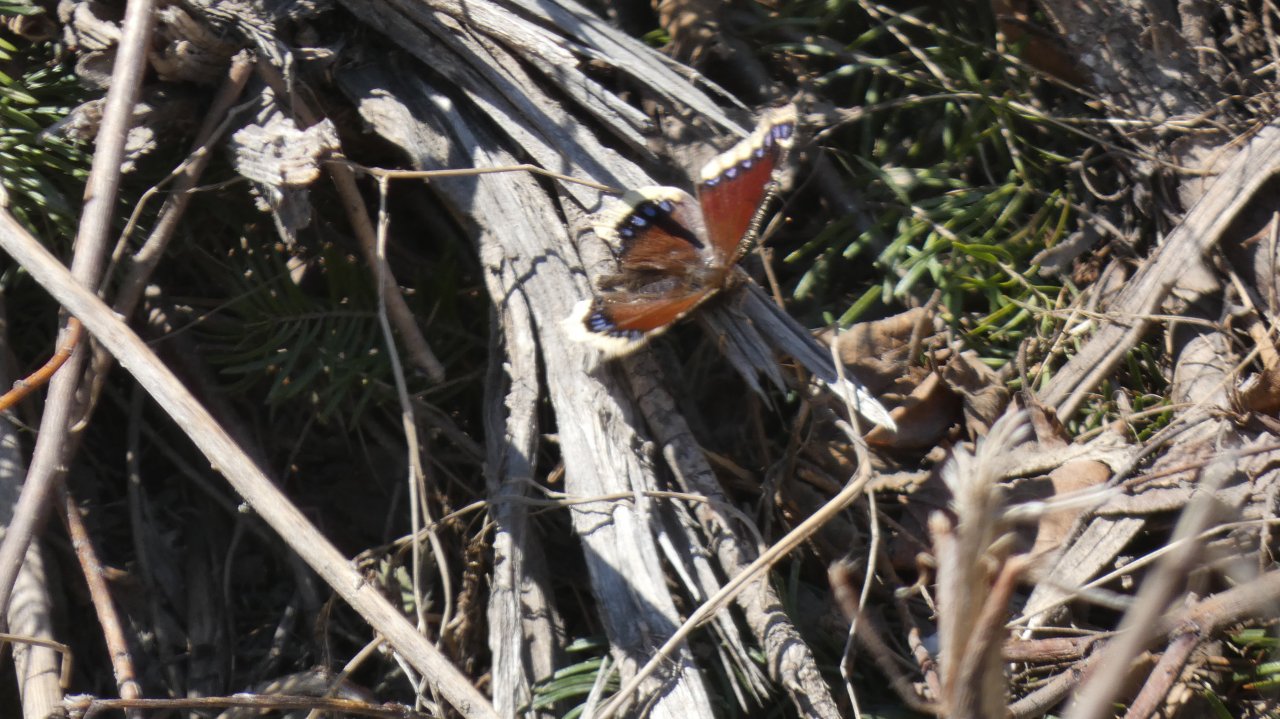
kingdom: Animalia
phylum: Arthropoda
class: Insecta
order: Lepidoptera
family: Nymphalidae
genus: Nymphalis
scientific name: Nymphalis antiopa
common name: Mourning Cloak
